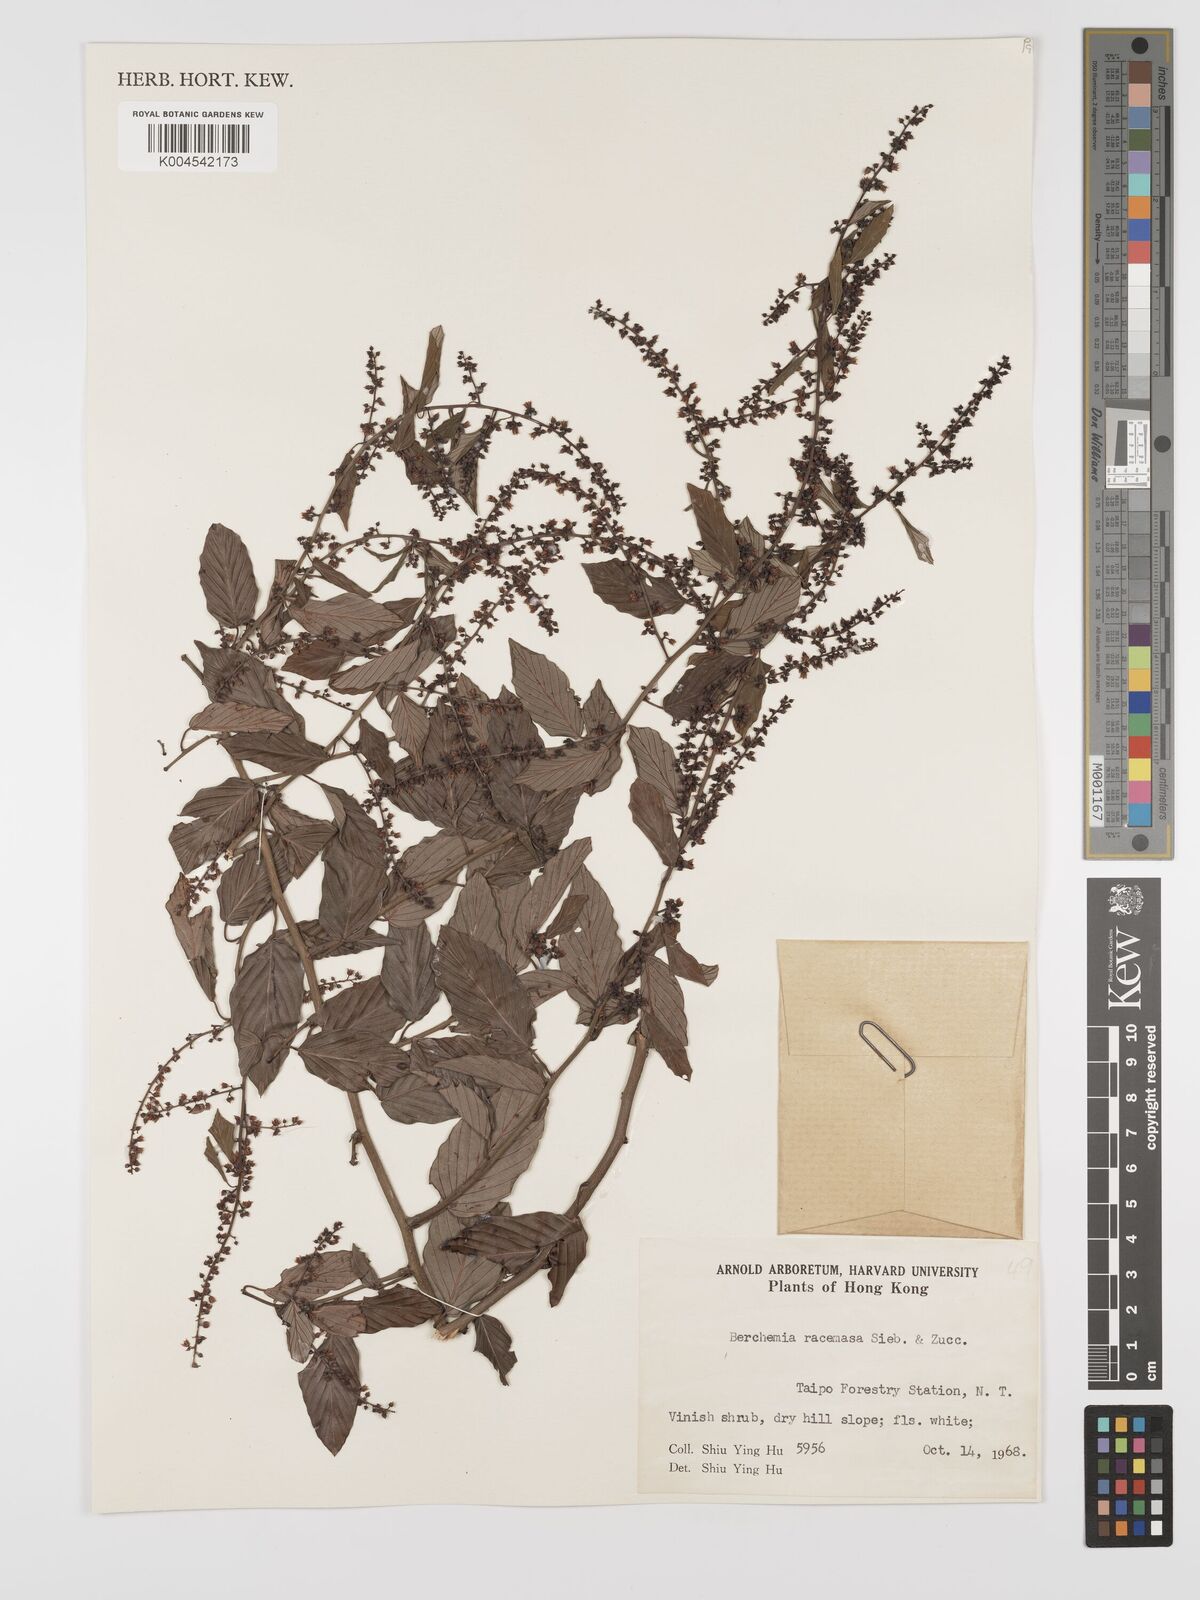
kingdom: Plantae
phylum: Tracheophyta
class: Magnoliopsida
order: Rosales
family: Rhamnaceae
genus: Berchemia
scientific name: Berchemia floribunda
